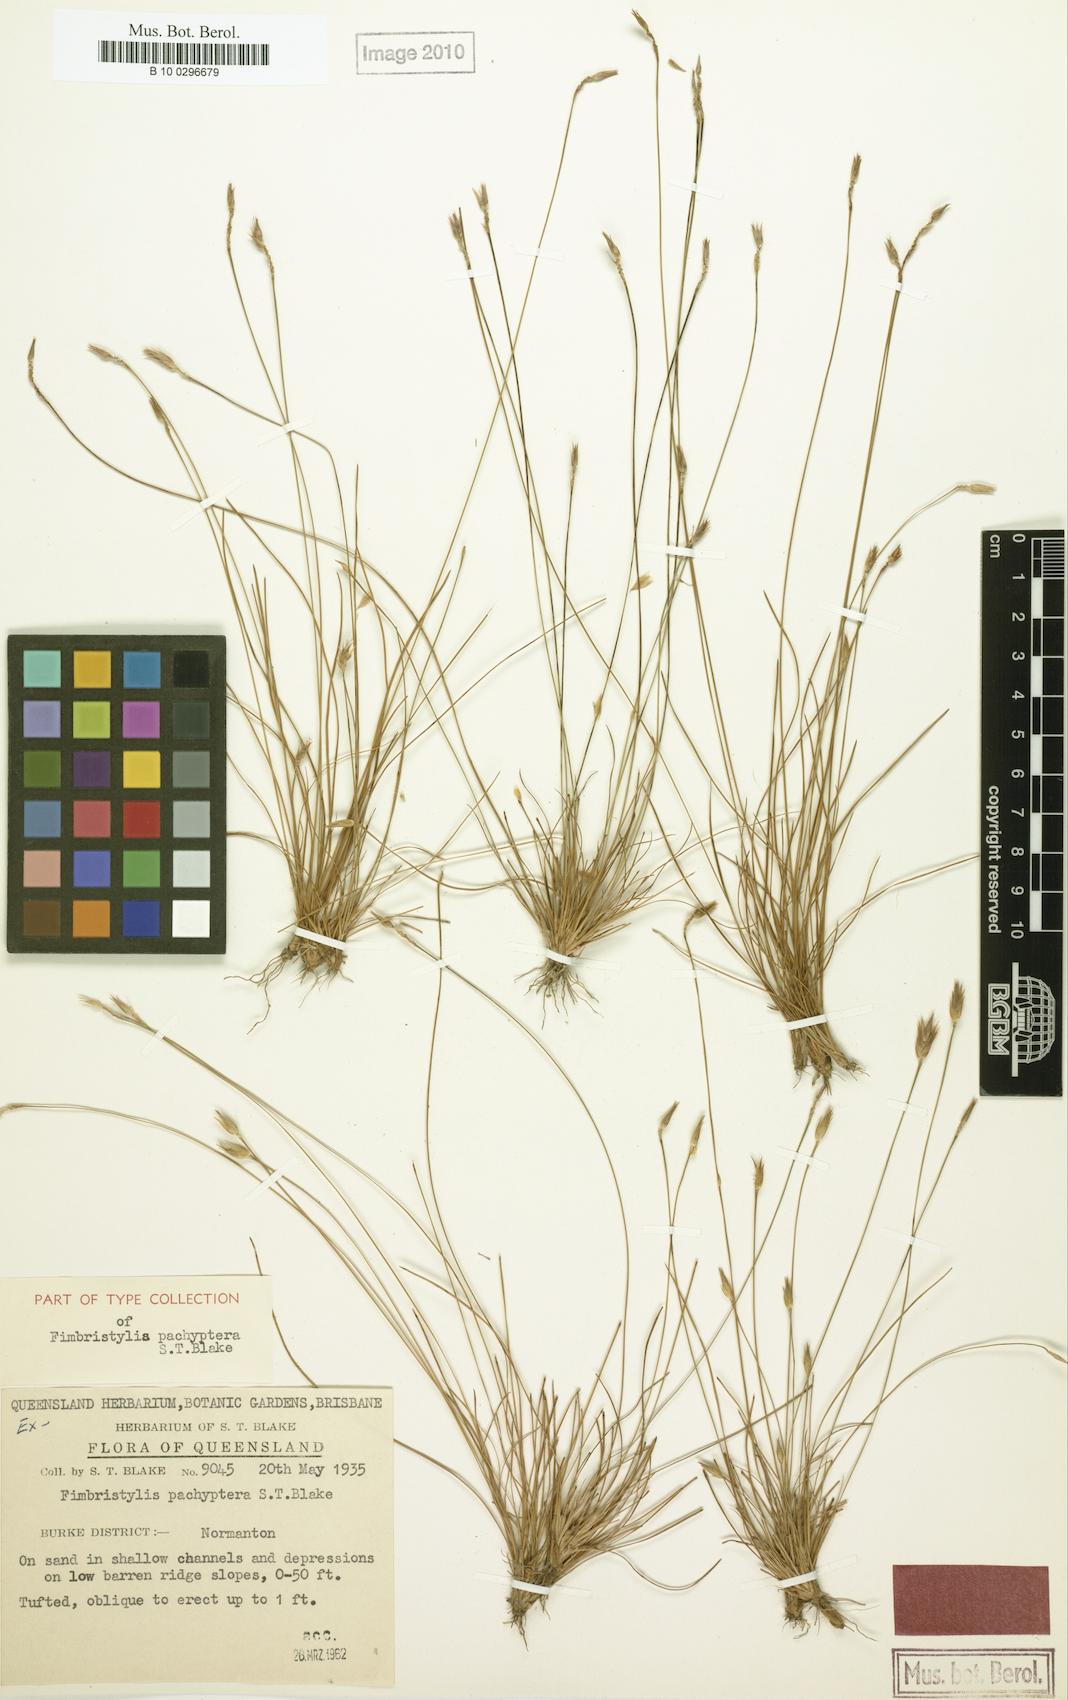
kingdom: Plantae
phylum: Tracheophyta
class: Liliopsida
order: Poales
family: Cyperaceae
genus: Abildgaardia
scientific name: Abildgaardia pachyptera
